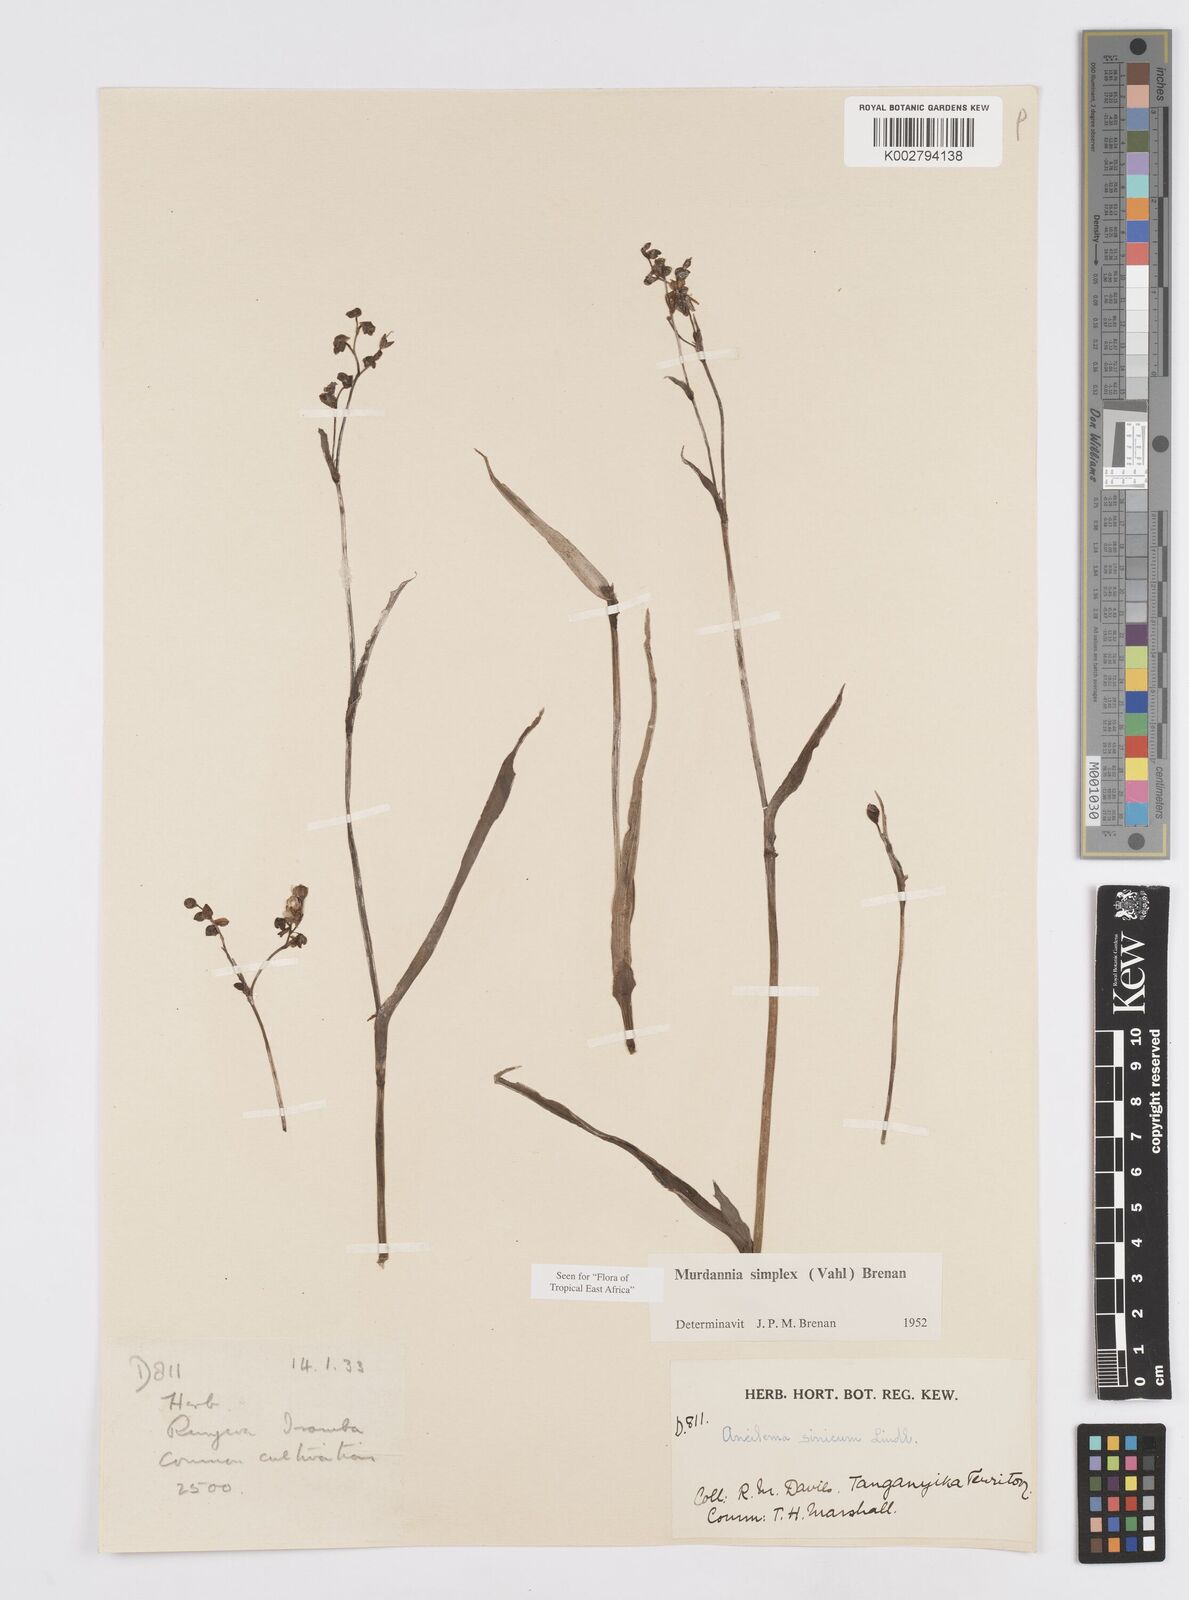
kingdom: Plantae
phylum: Tracheophyta
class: Liliopsida
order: Commelinales
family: Commelinaceae
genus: Murdannia
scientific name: Murdannia simplex
